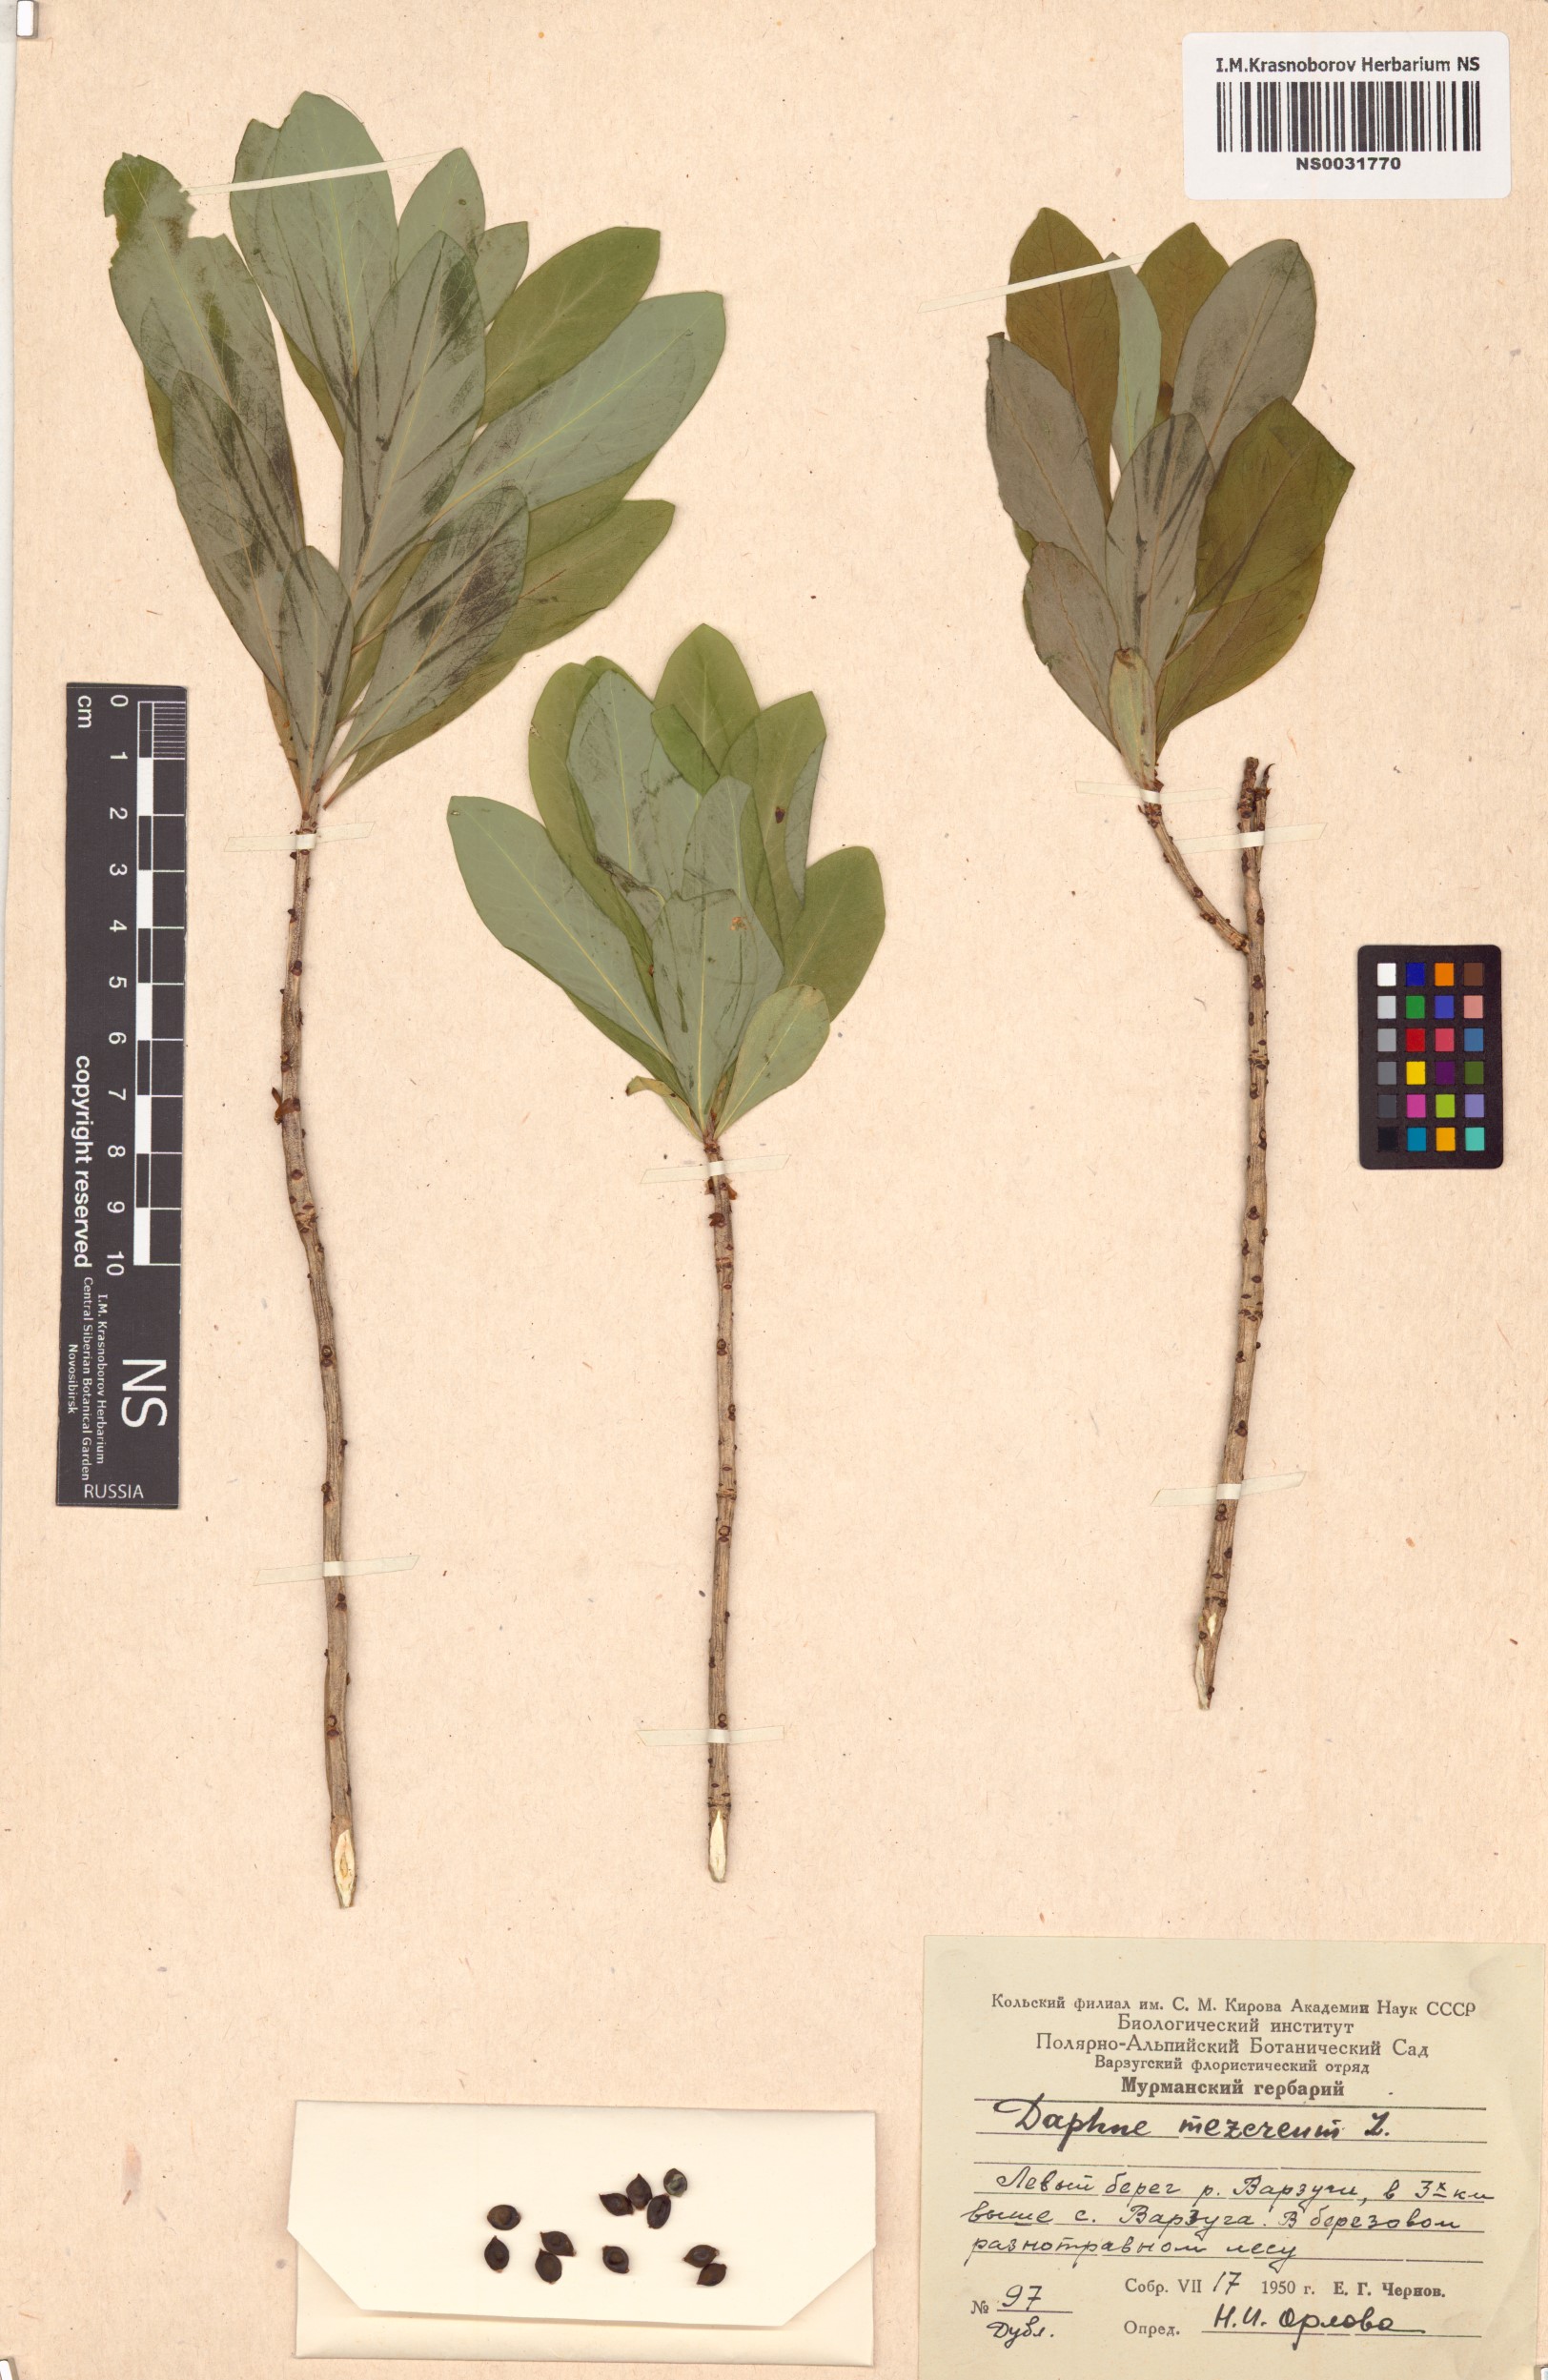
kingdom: Plantae
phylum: Tracheophyta
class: Magnoliopsida
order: Malvales
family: Thymelaeaceae
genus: Daphne
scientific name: Daphne mezereum
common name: Mezereon
